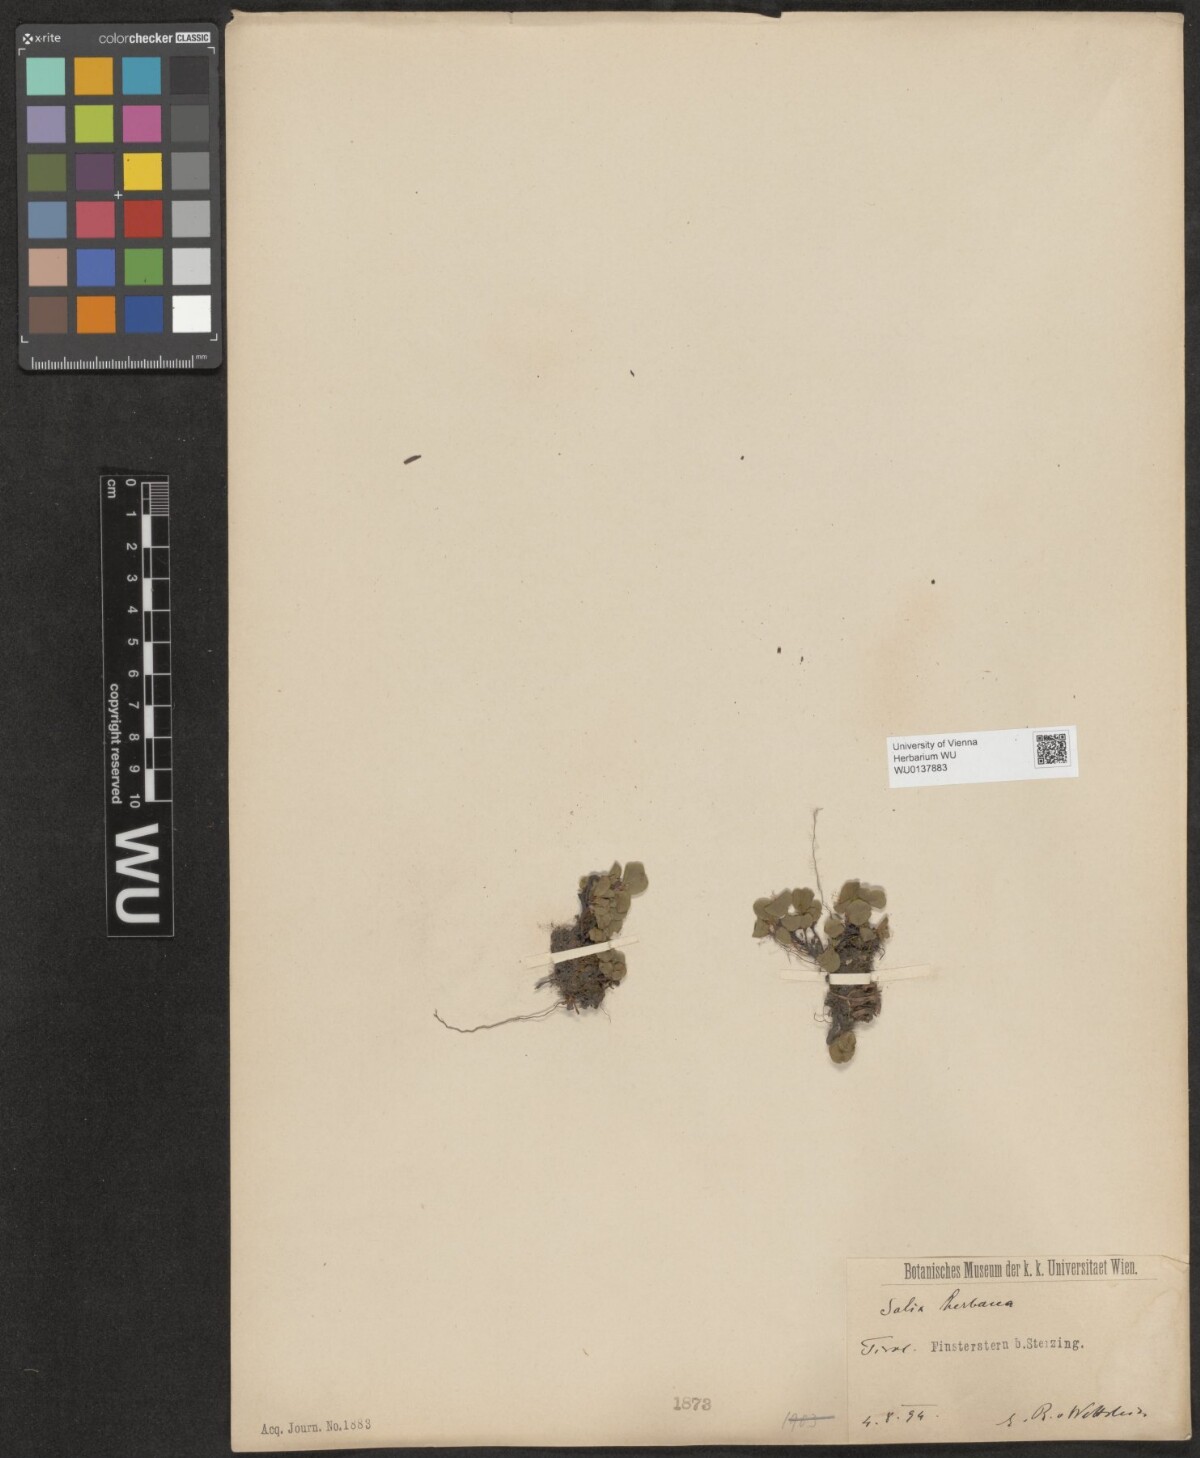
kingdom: Plantae
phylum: Tracheophyta
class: Magnoliopsida
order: Malpighiales
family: Salicaceae
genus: Salix
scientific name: Salix herbacea
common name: Dwarf willow
